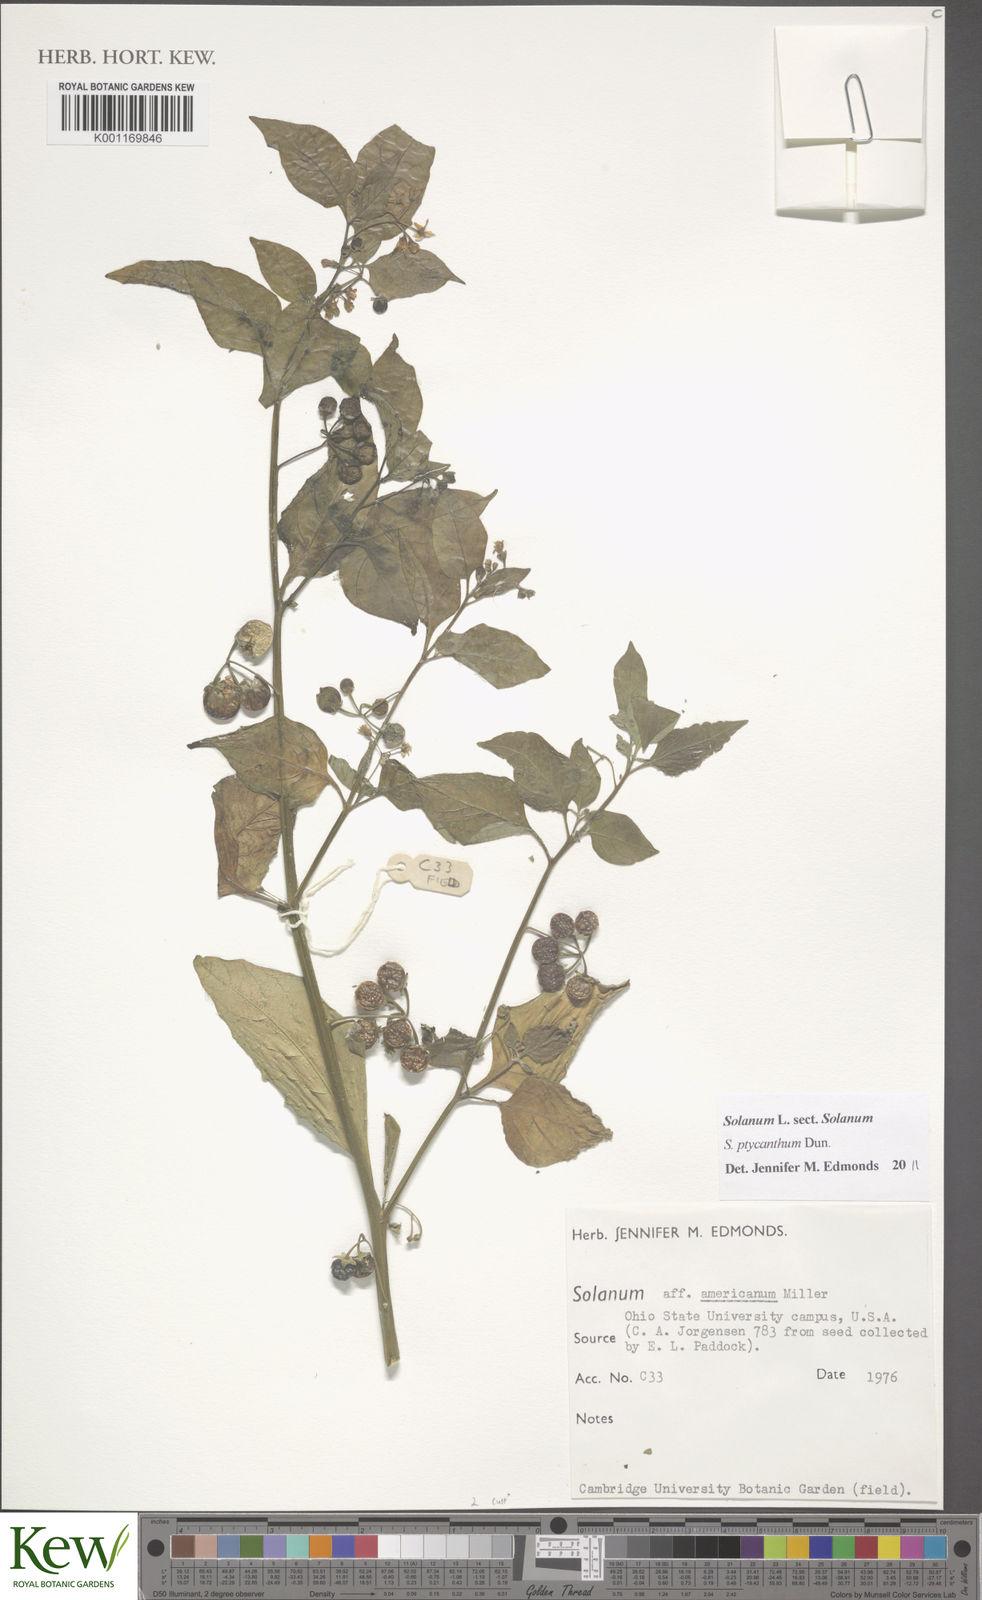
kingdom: Plantae
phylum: Tracheophyta
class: Magnoliopsida
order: Solanales
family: Solanaceae
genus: Solanum
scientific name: Solanum americanum
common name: American black nightshade
